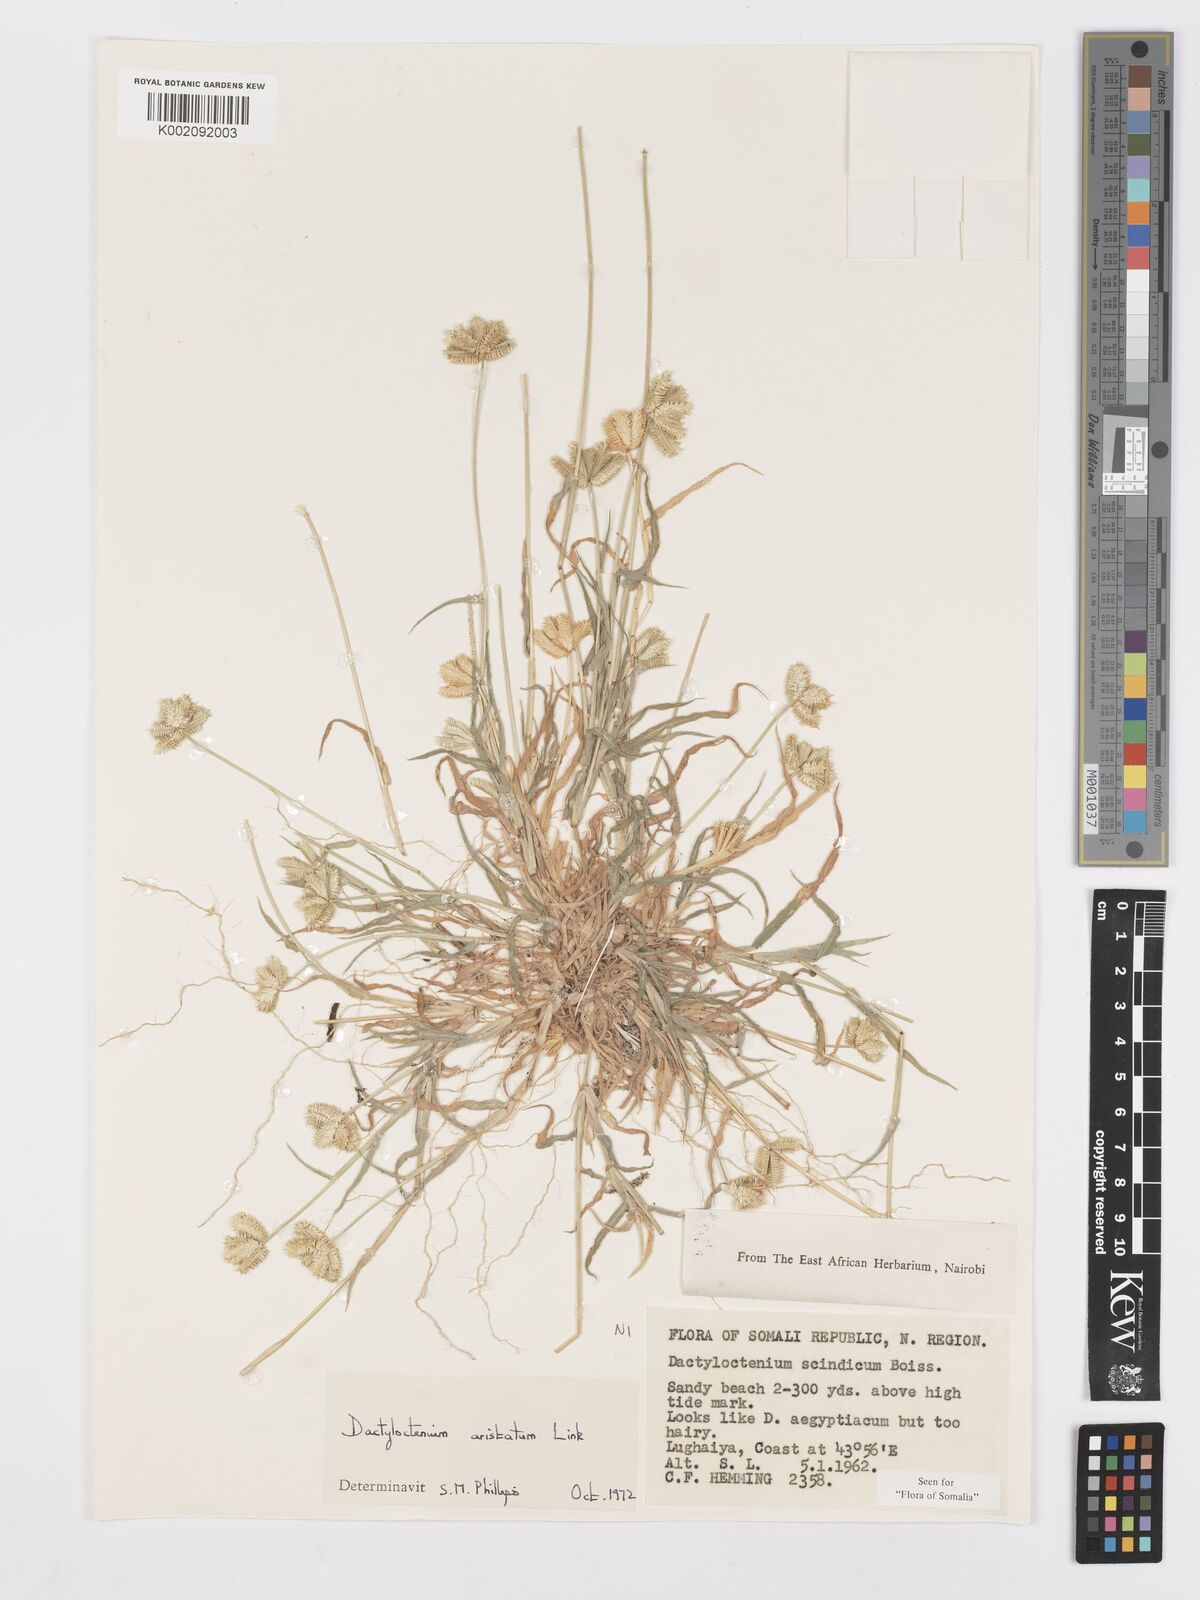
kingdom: Plantae
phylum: Tracheophyta
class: Liliopsida
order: Poales
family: Poaceae
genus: Dactyloctenium
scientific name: Dactyloctenium aristatum
